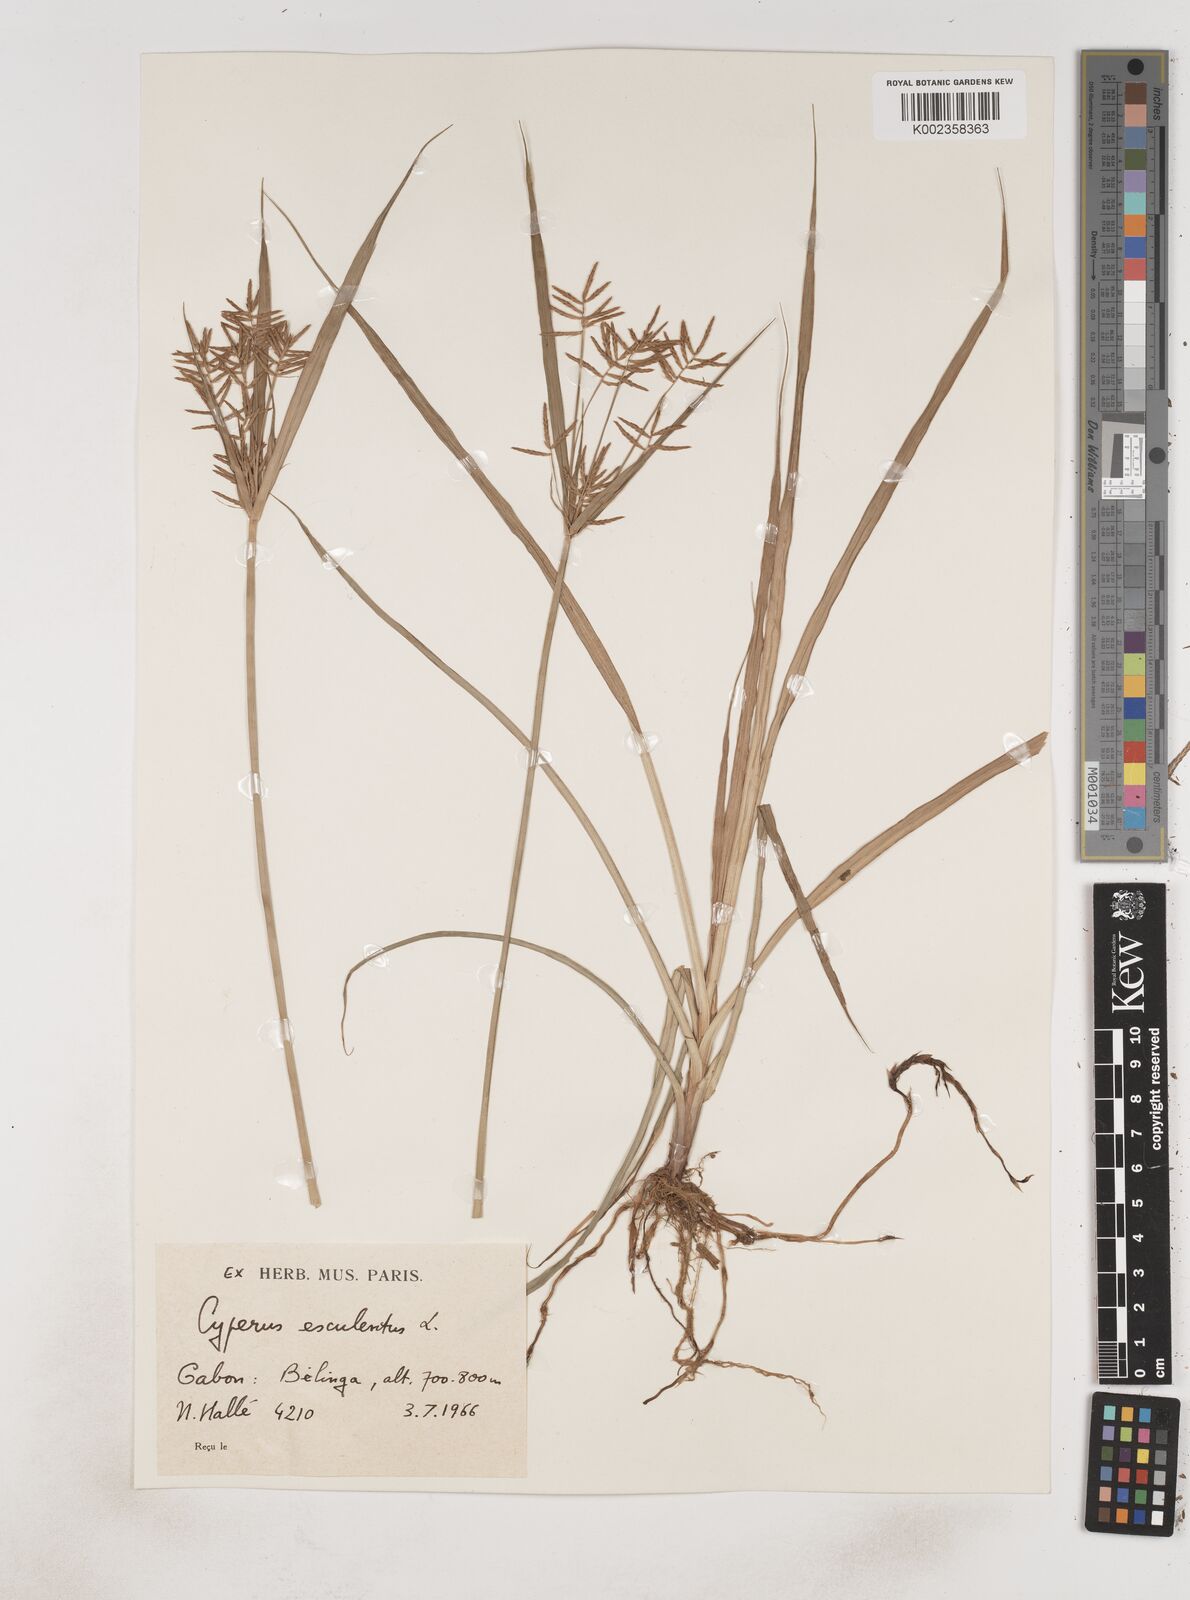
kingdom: Plantae
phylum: Tracheophyta
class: Liliopsida
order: Poales
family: Cyperaceae
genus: Cyperus
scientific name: Cyperus esculentus
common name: Yellow nutsedge
